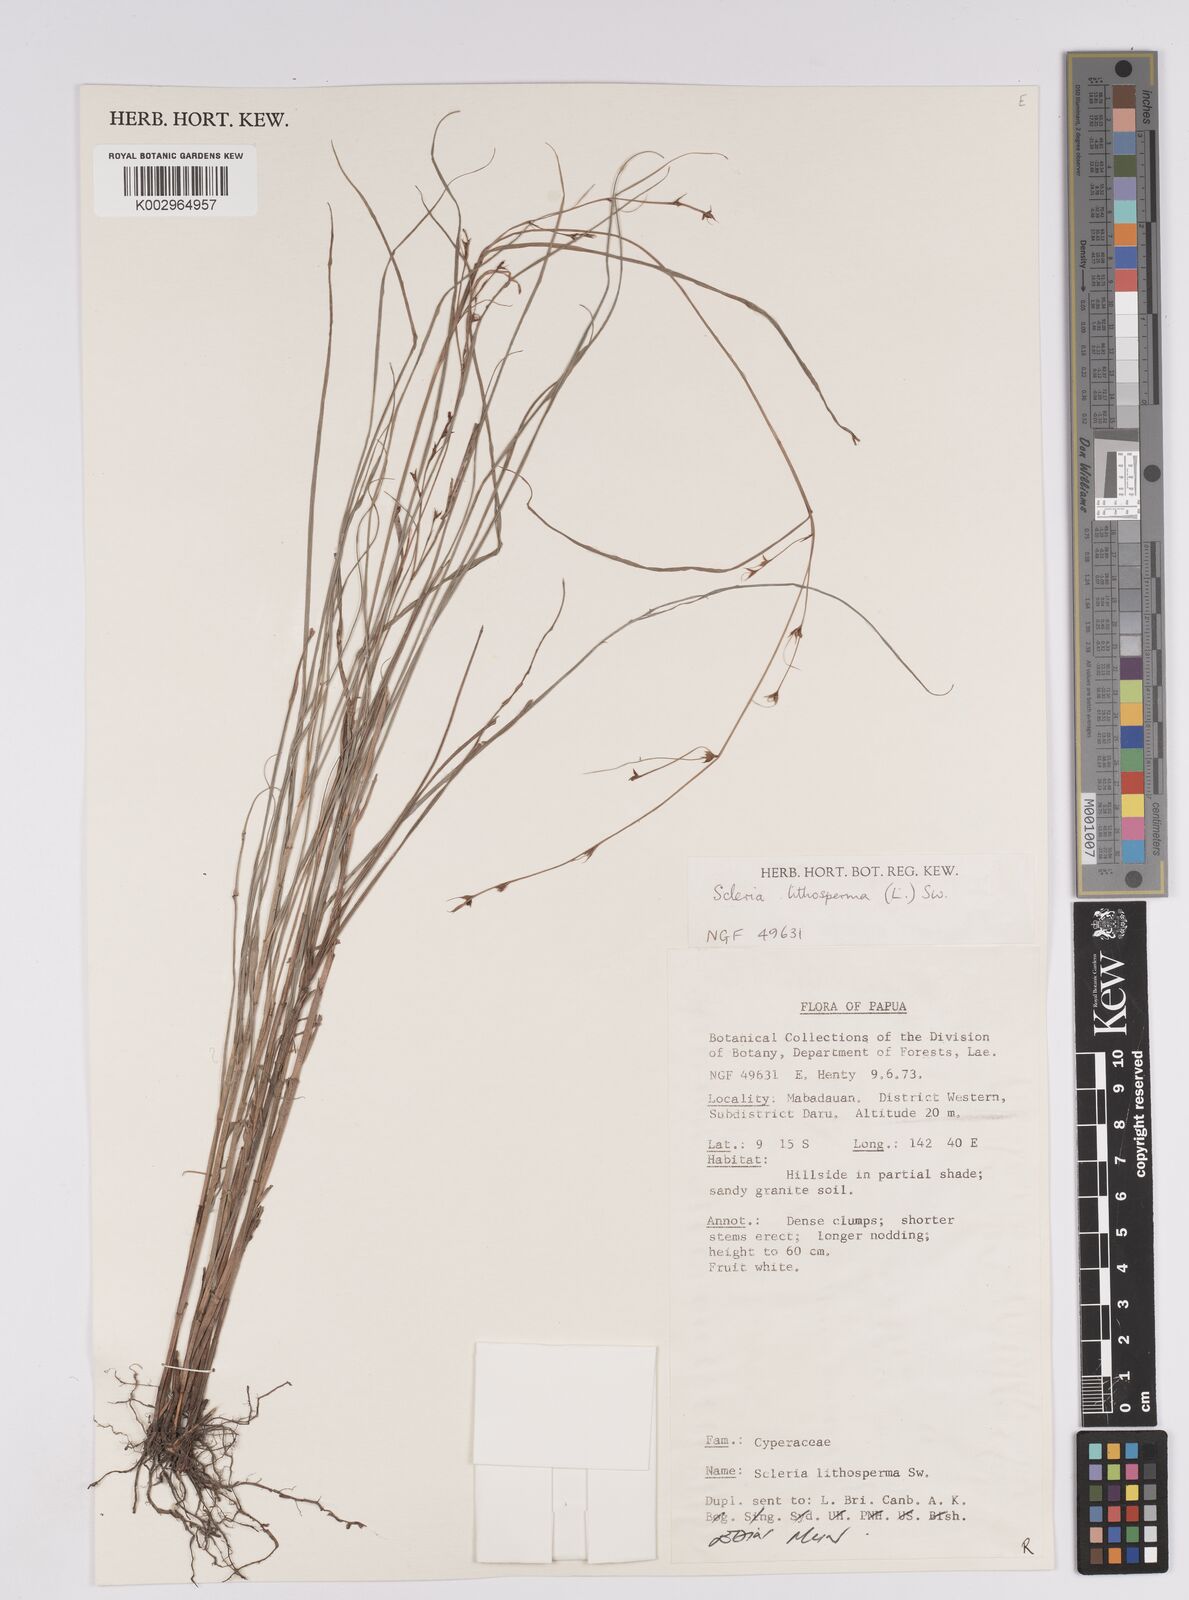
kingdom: Plantae
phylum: Tracheophyta
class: Liliopsida
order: Poales
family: Cyperaceae
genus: Scleria
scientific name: Scleria lithosperma
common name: Florida keys nut-rush
